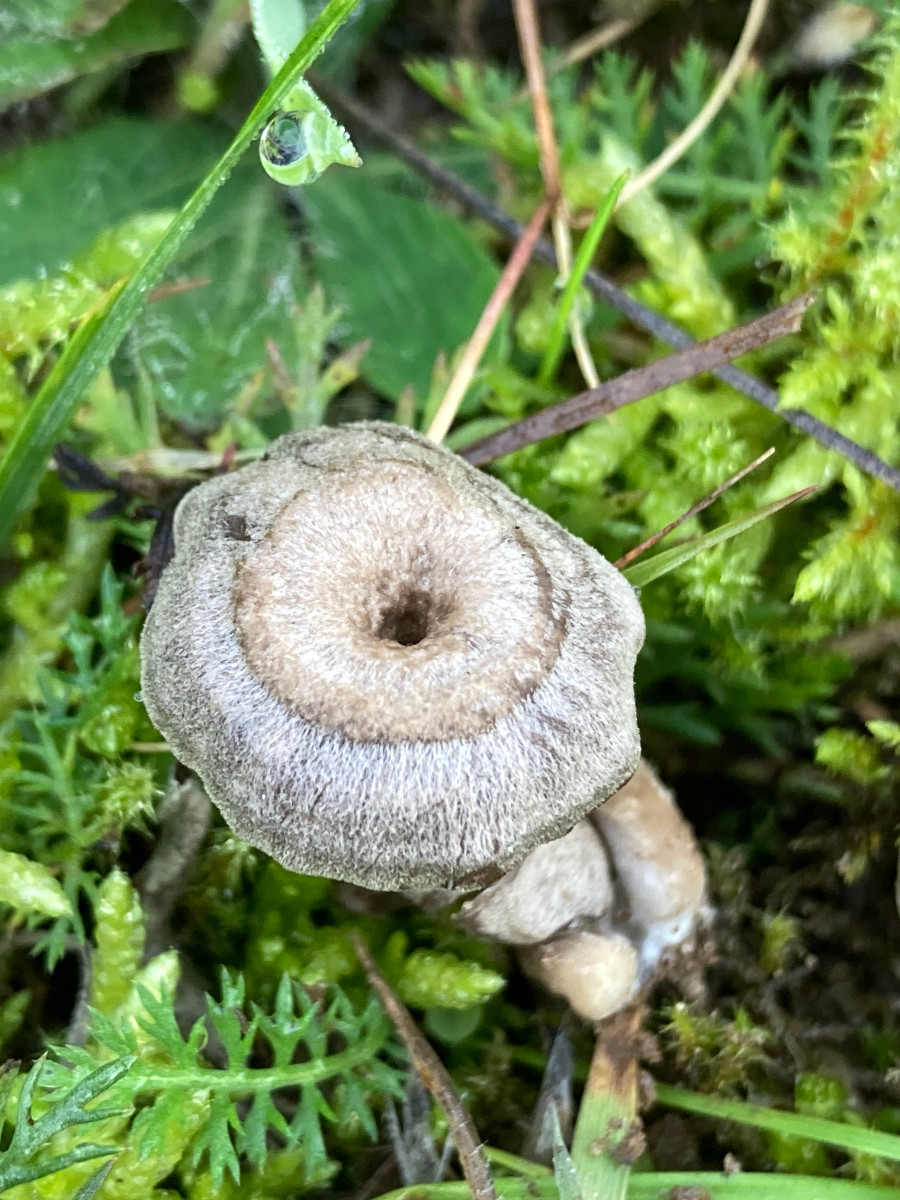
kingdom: Fungi
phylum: Basidiomycota
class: Agaricomycetes
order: Agaricales
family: Entolomataceae
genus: Entoloma
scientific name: Entoloma undatum
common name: bæltet rødblad
